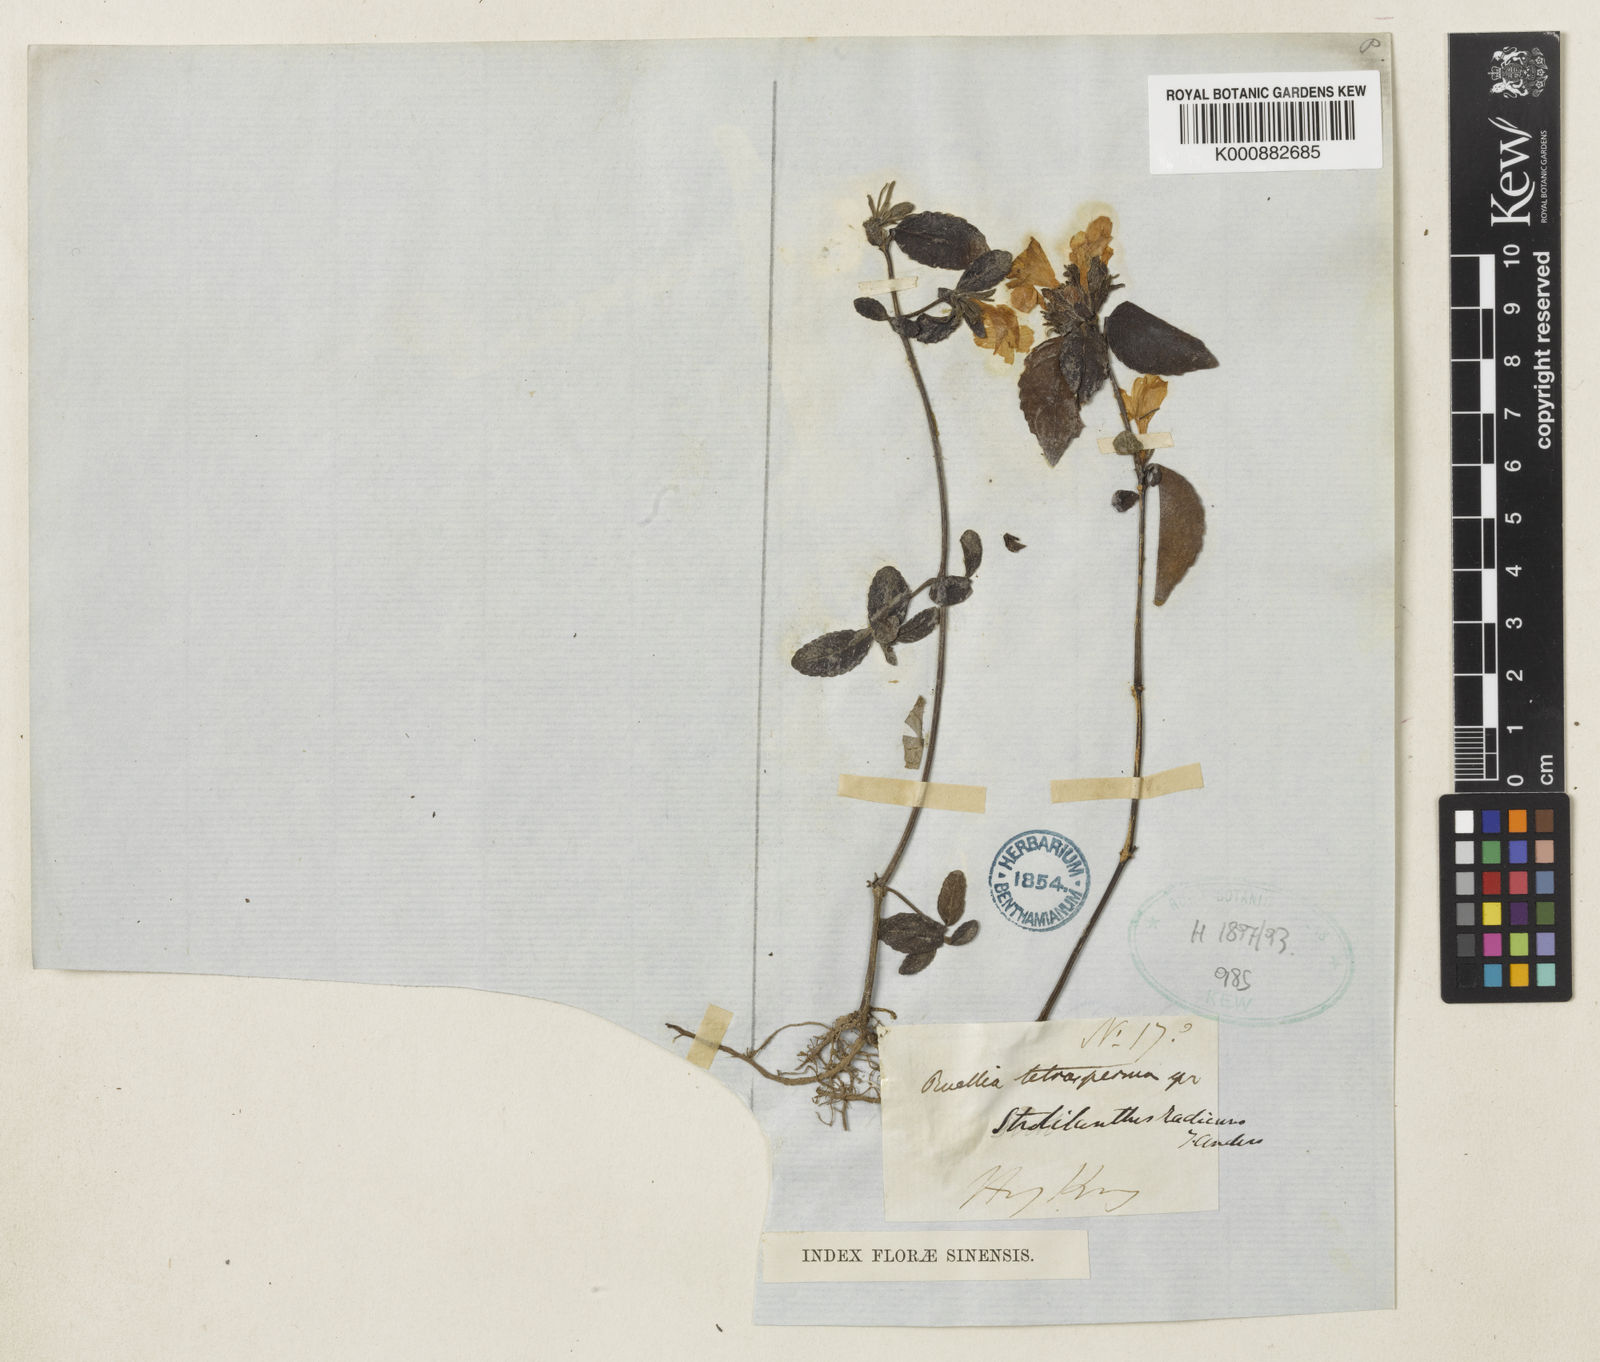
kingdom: Plantae
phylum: Tracheophyta
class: Magnoliopsida
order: Lamiales
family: Acanthaceae
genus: Strobilanthes
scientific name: Strobilanthes tetrasperma
